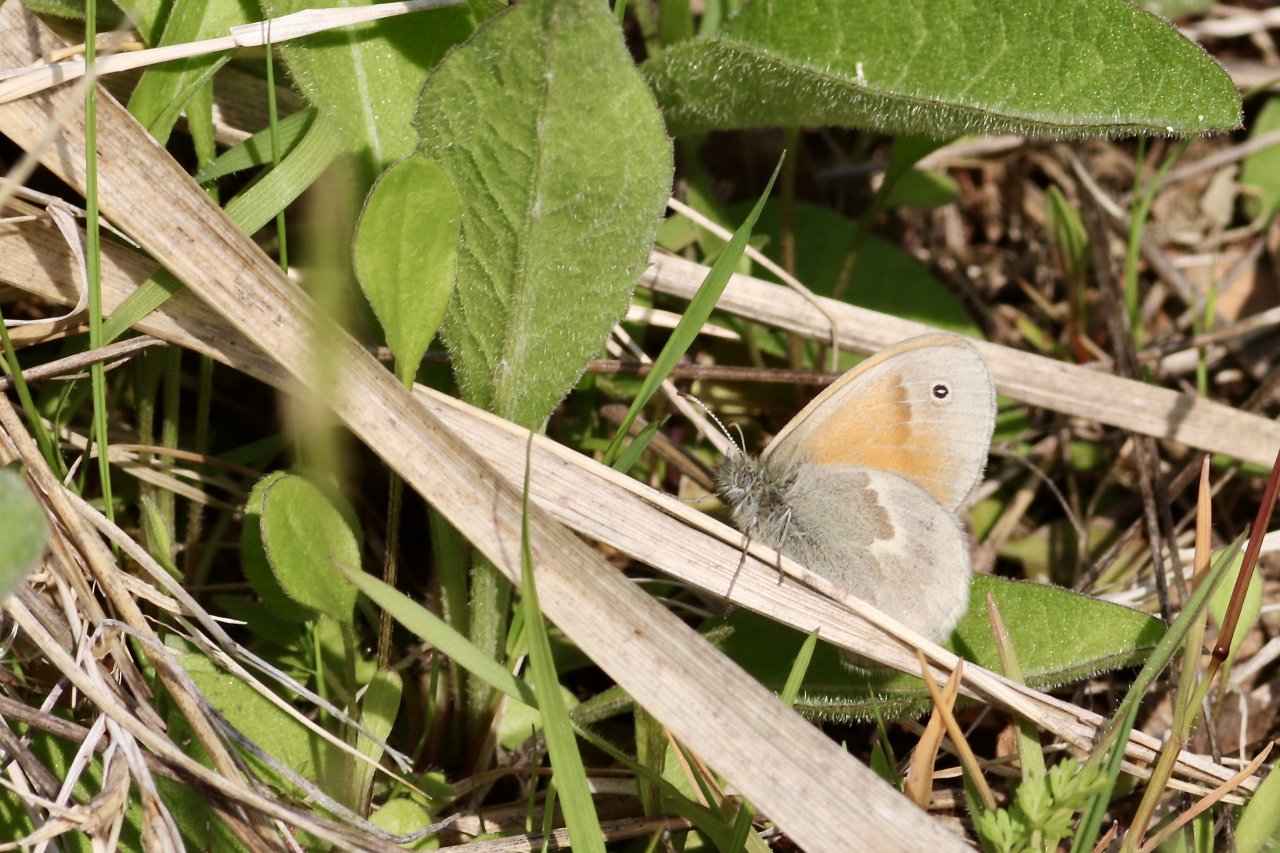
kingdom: Animalia
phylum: Arthropoda
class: Insecta
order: Lepidoptera
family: Nymphalidae
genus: Coenonympha
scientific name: Coenonympha tullia
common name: Large Heath
